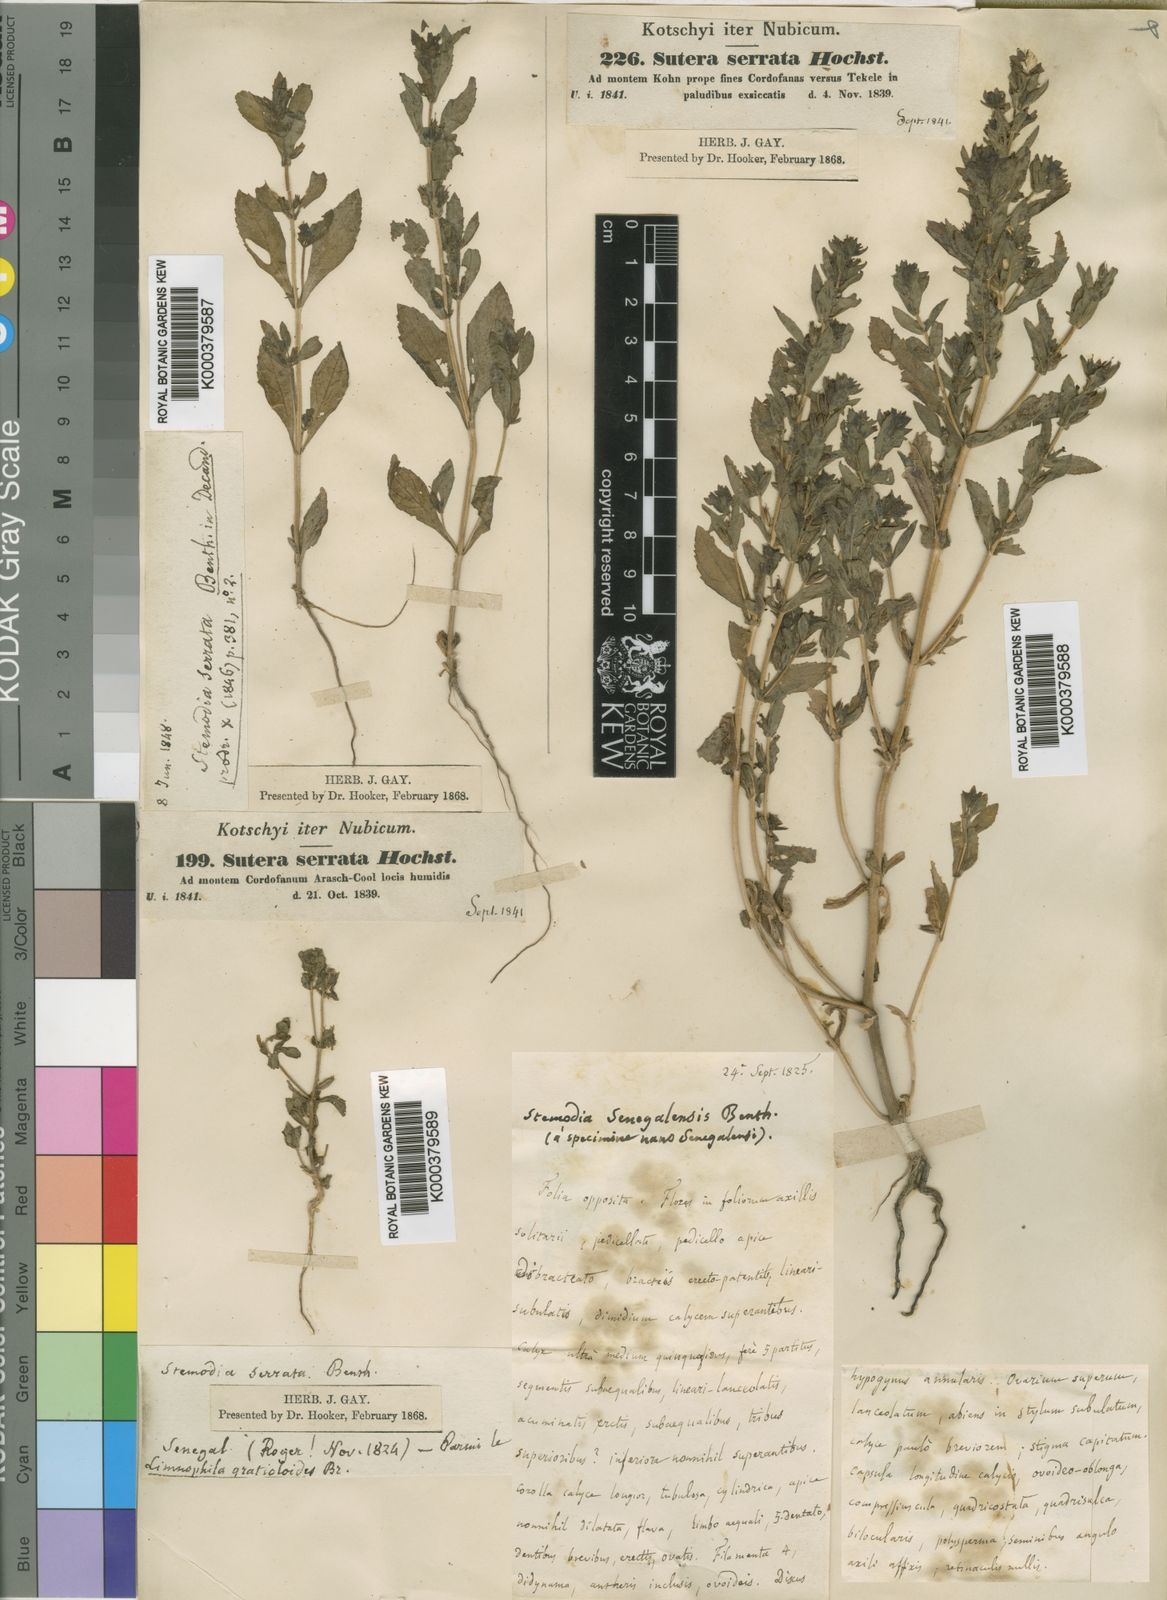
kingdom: Plantae
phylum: Tracheophyta
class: Magnoliopsida
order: Lamiales
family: Plantaginaceae
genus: Stemodia
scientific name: Stemodia serrata
